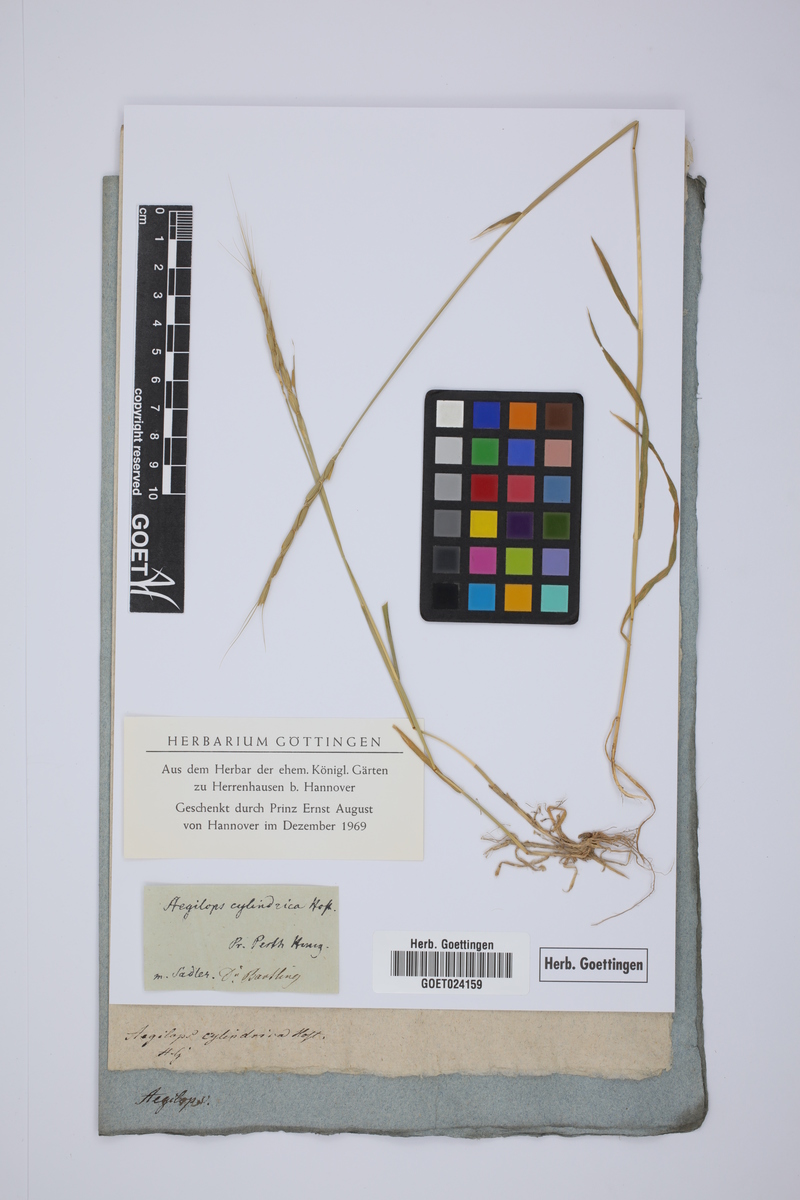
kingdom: Plantae
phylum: Tracheophyta
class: Liliopsida
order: Poales
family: Poaceae
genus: Aegilops
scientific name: Aegilops cylindrica
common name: Jointed goatgrass
